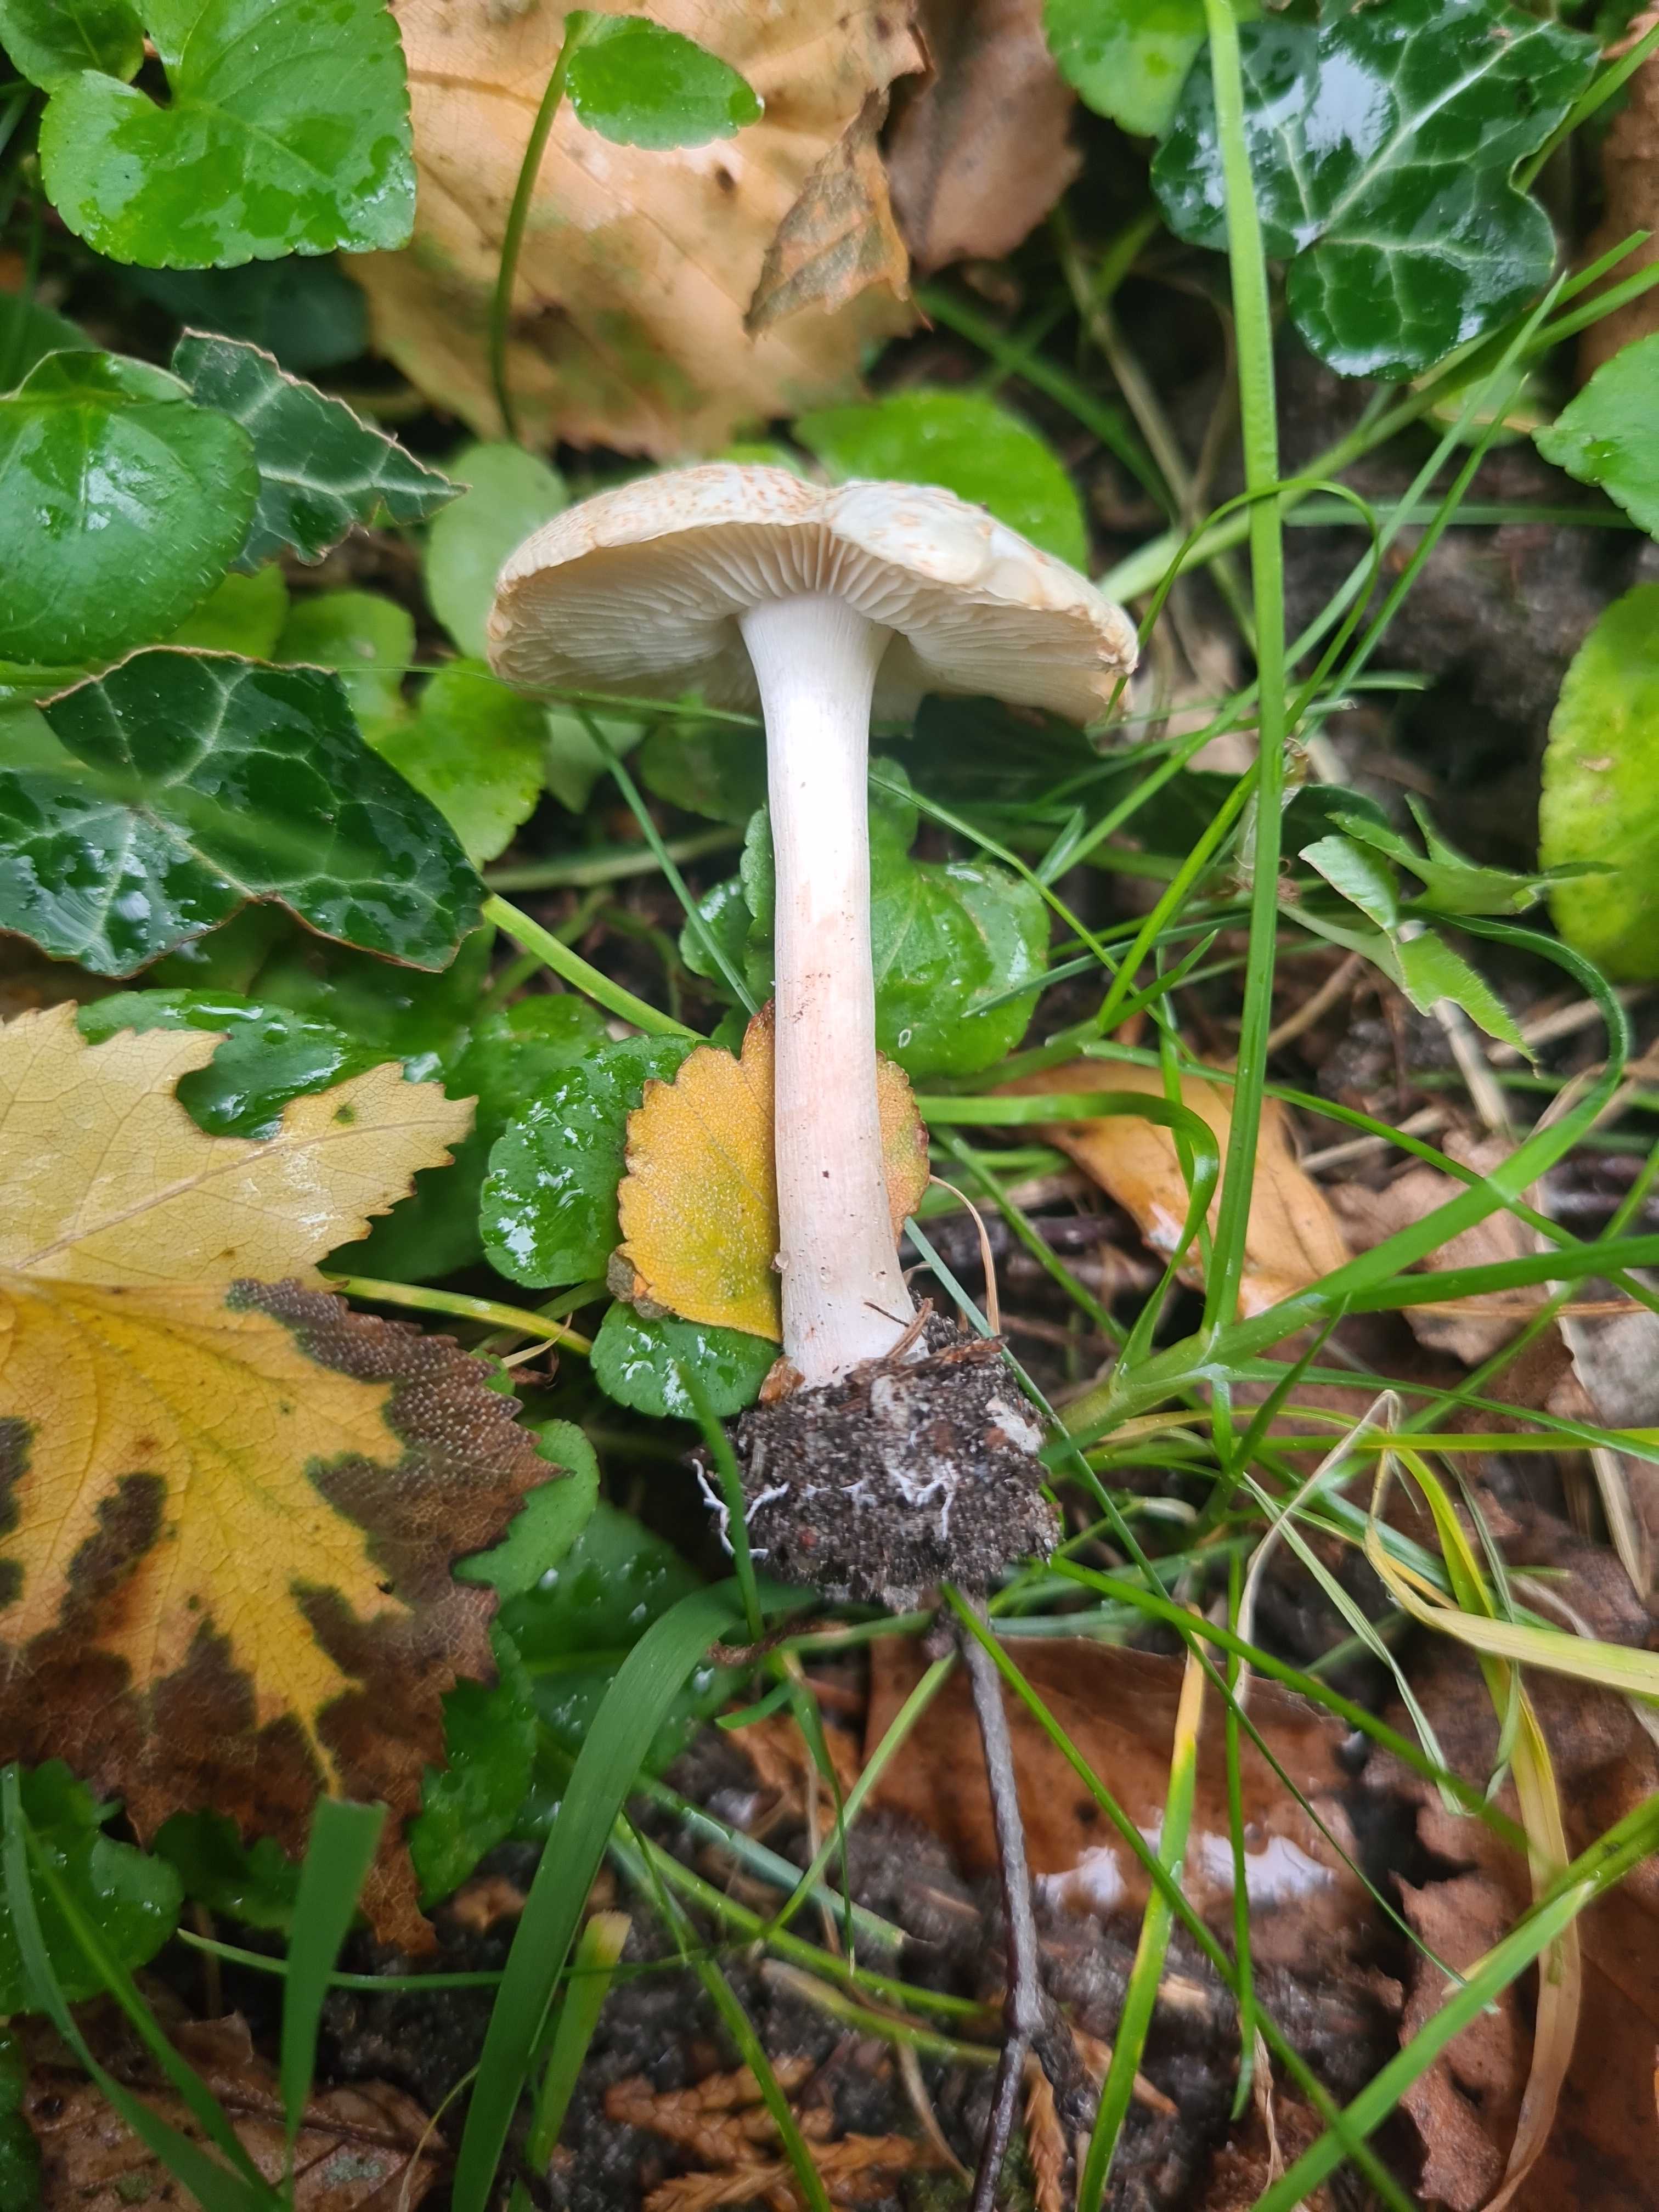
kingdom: Fungi
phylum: Basidiomycota
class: Agaricomycetes
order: Agaricales
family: Agaricaceae
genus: Lepiota
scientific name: Lepiota cristata
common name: stinkende parasolhat
